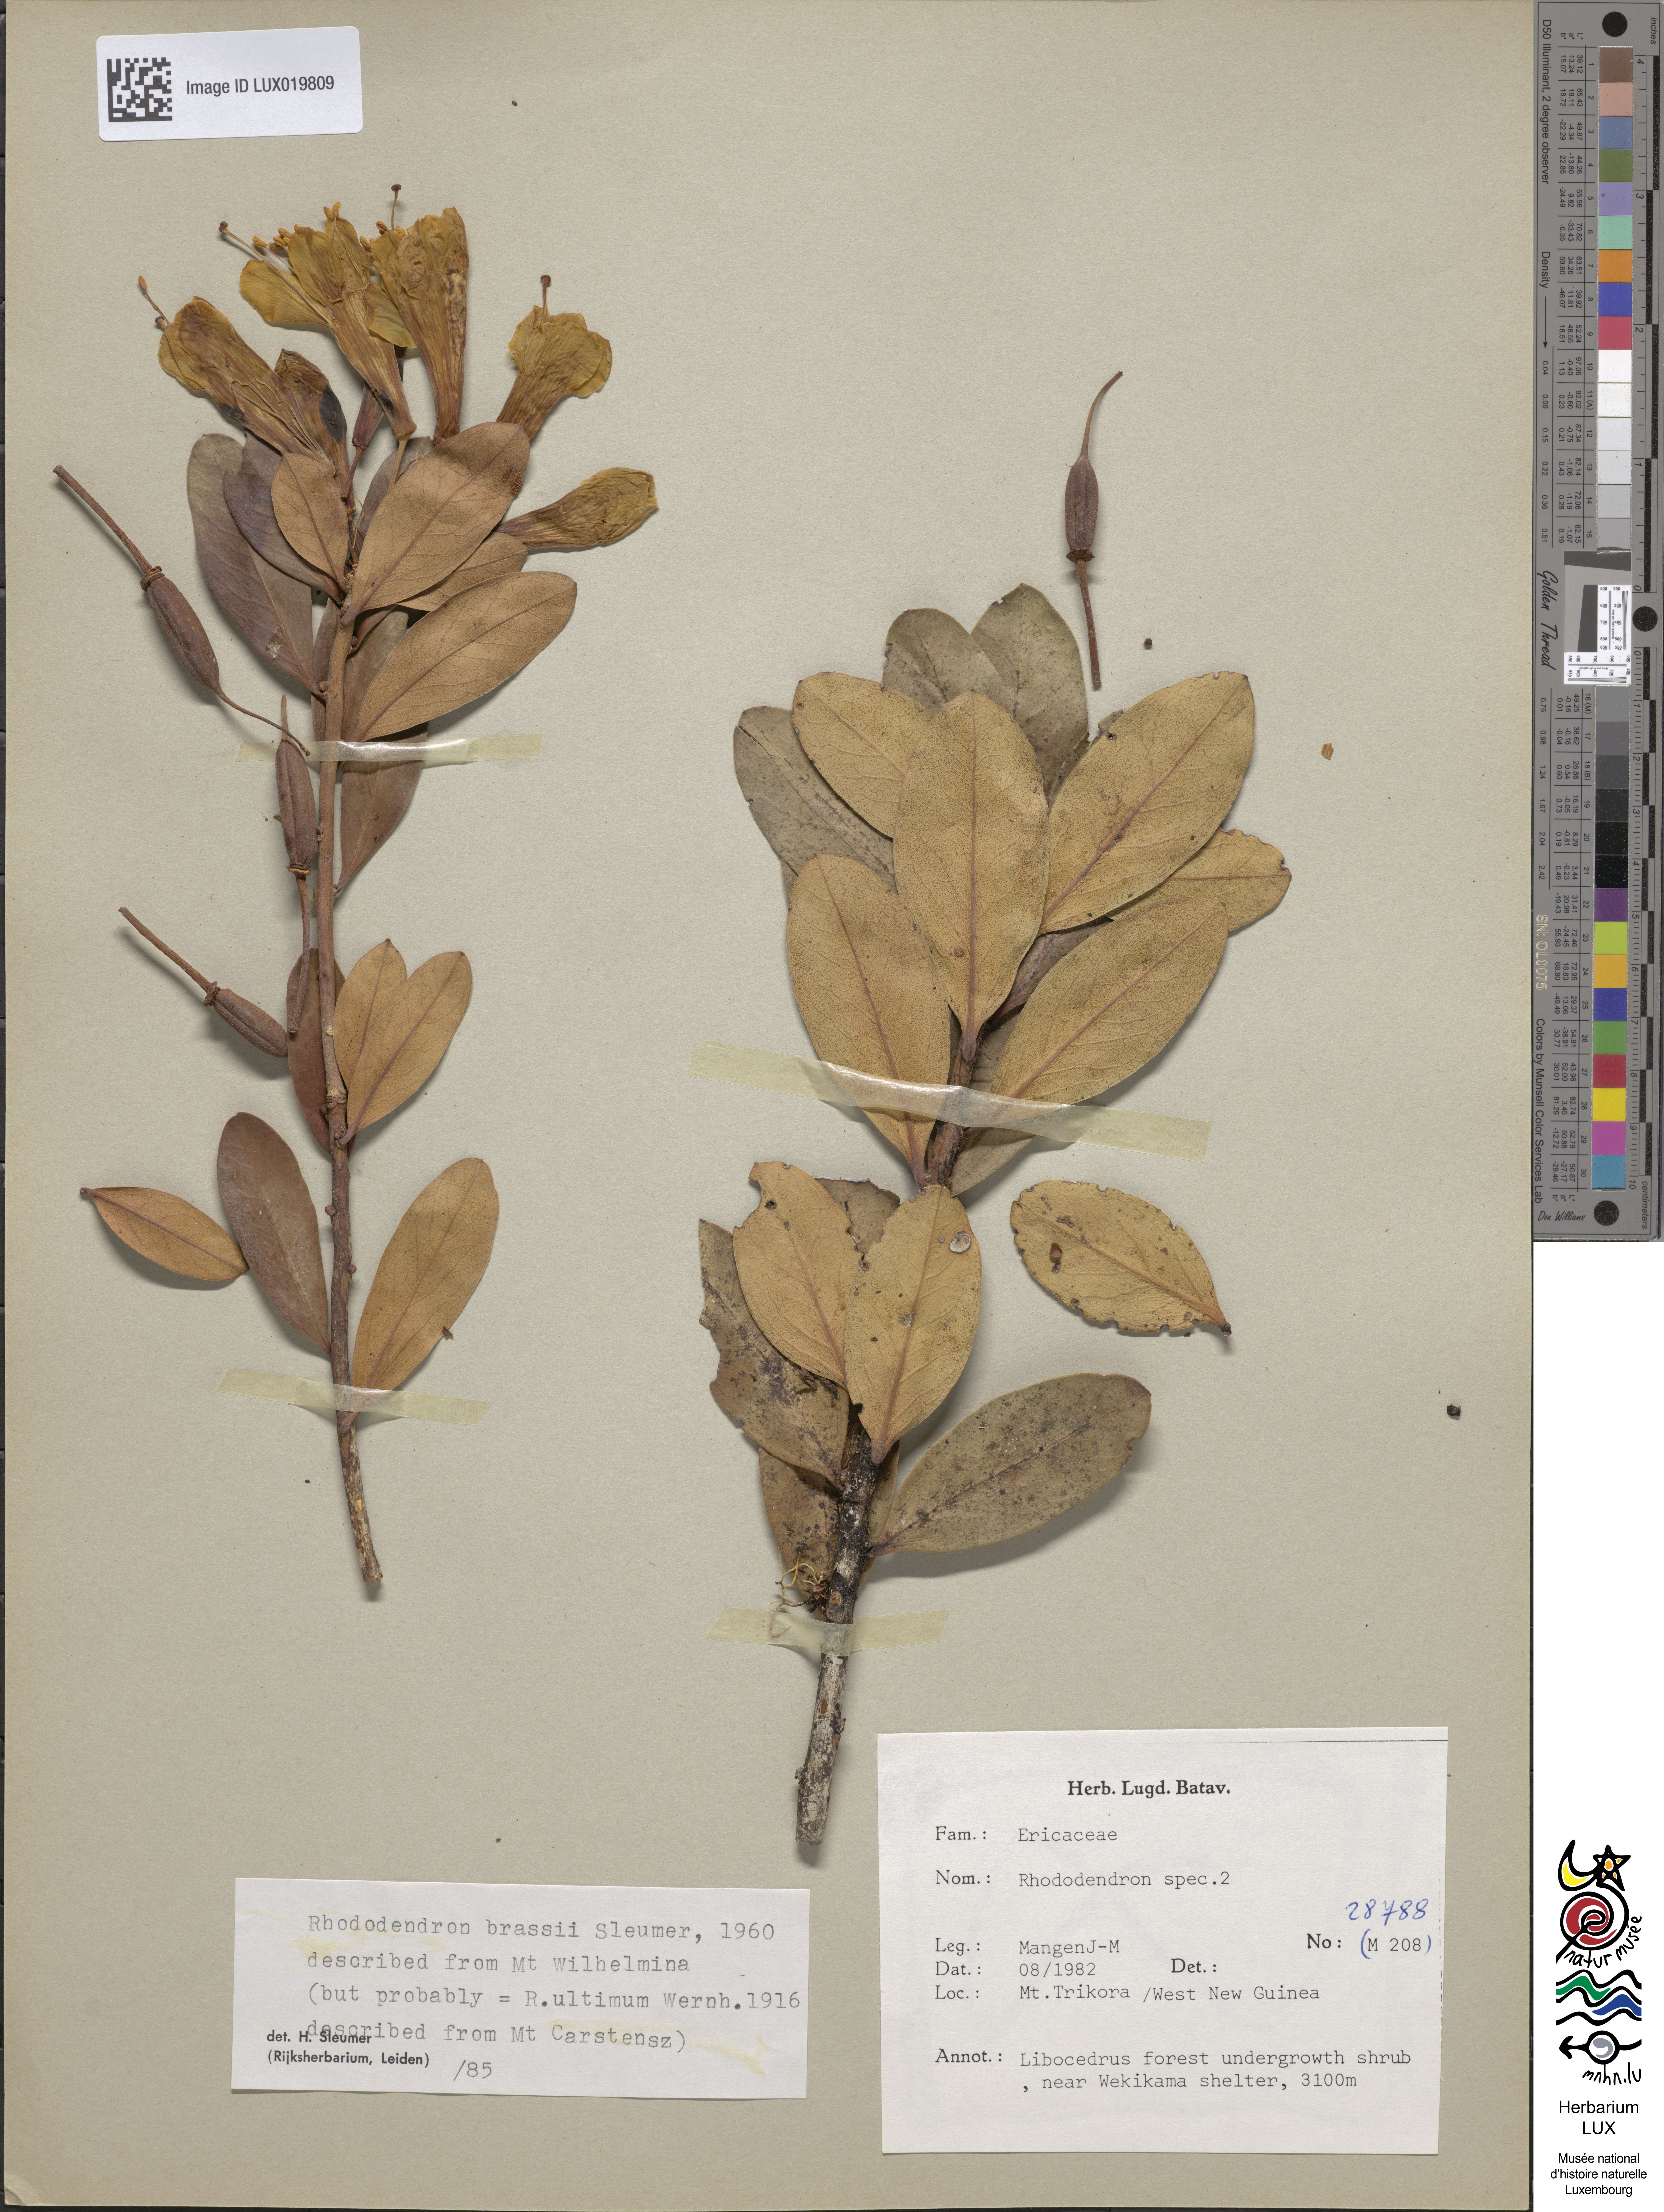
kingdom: Plantae
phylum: Tracheophyta
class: Magnoliopsida
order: Ericales
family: Ericaceae
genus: Rhododendron
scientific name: Rhododendron
